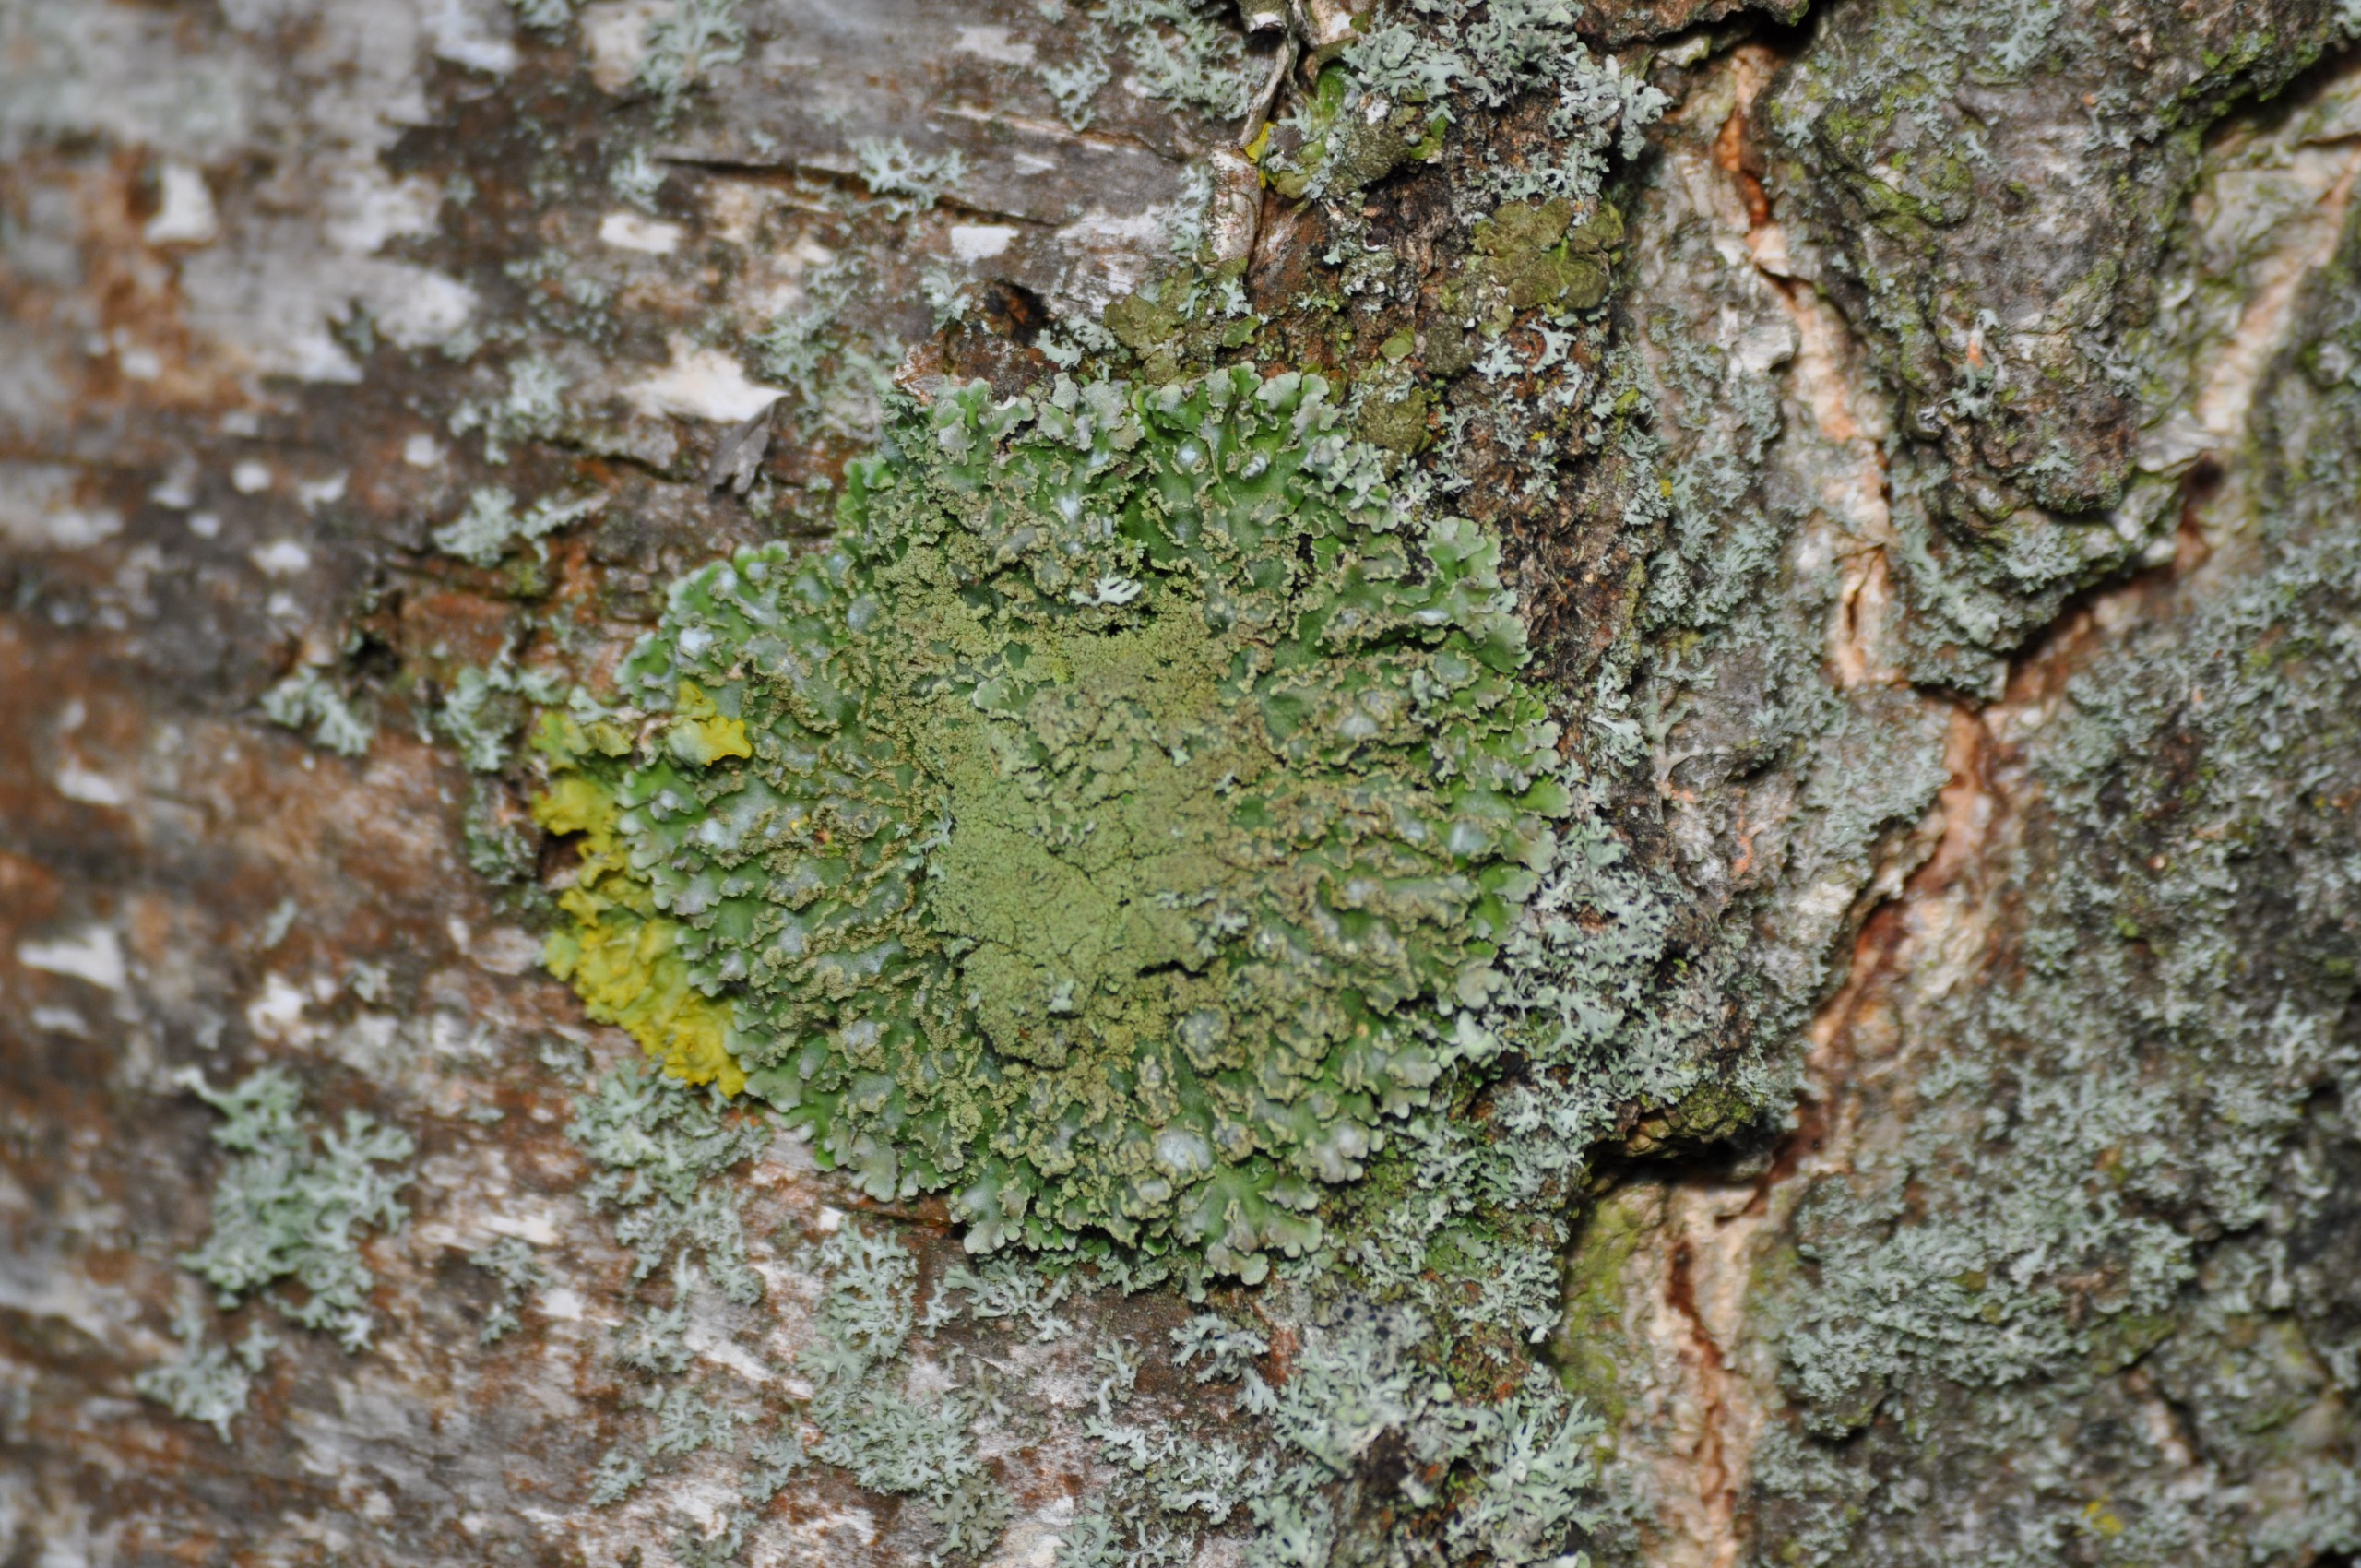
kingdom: Fungi
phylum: Ascomycota
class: Lecanoromycetes
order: Caliciales
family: Physciaceae
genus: Physconia
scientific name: Physconia enteroxantha
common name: Grynet dugrosetlav
